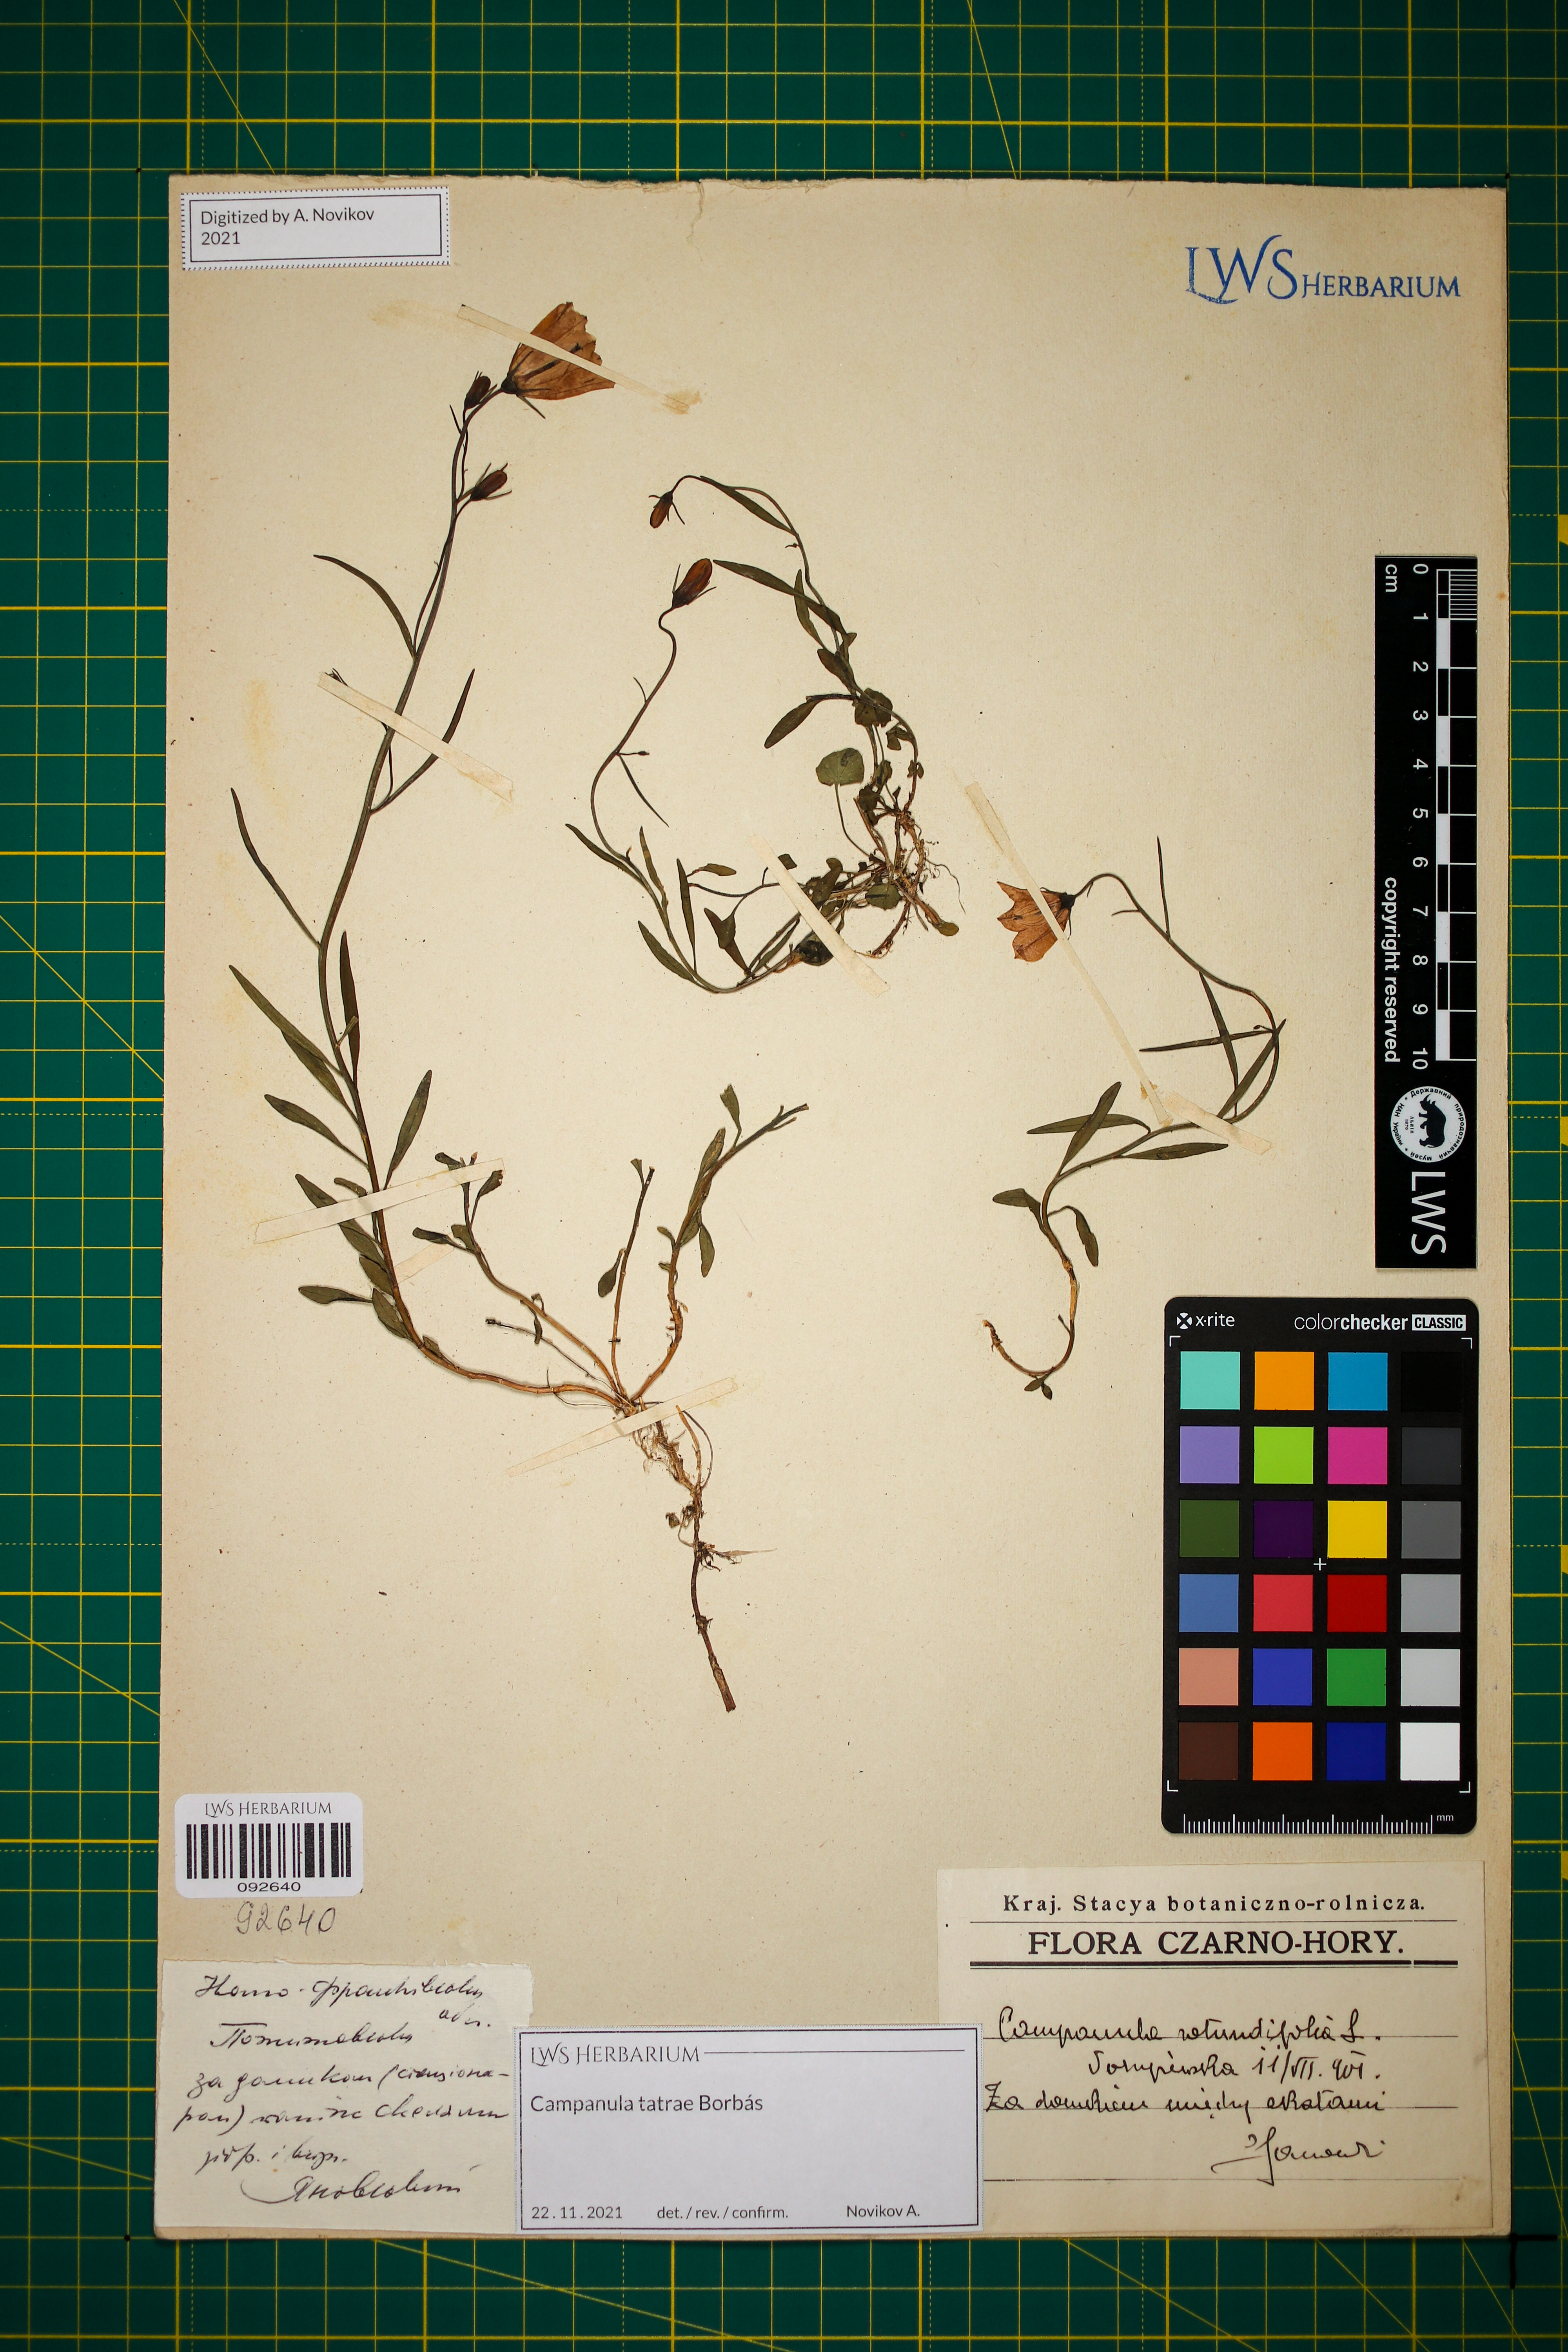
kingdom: Plantae
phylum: Tracheophyta
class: Magnoliopsida
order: Asterales
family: Campanulaceae
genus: Campanula
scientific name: Campanula tatrae
